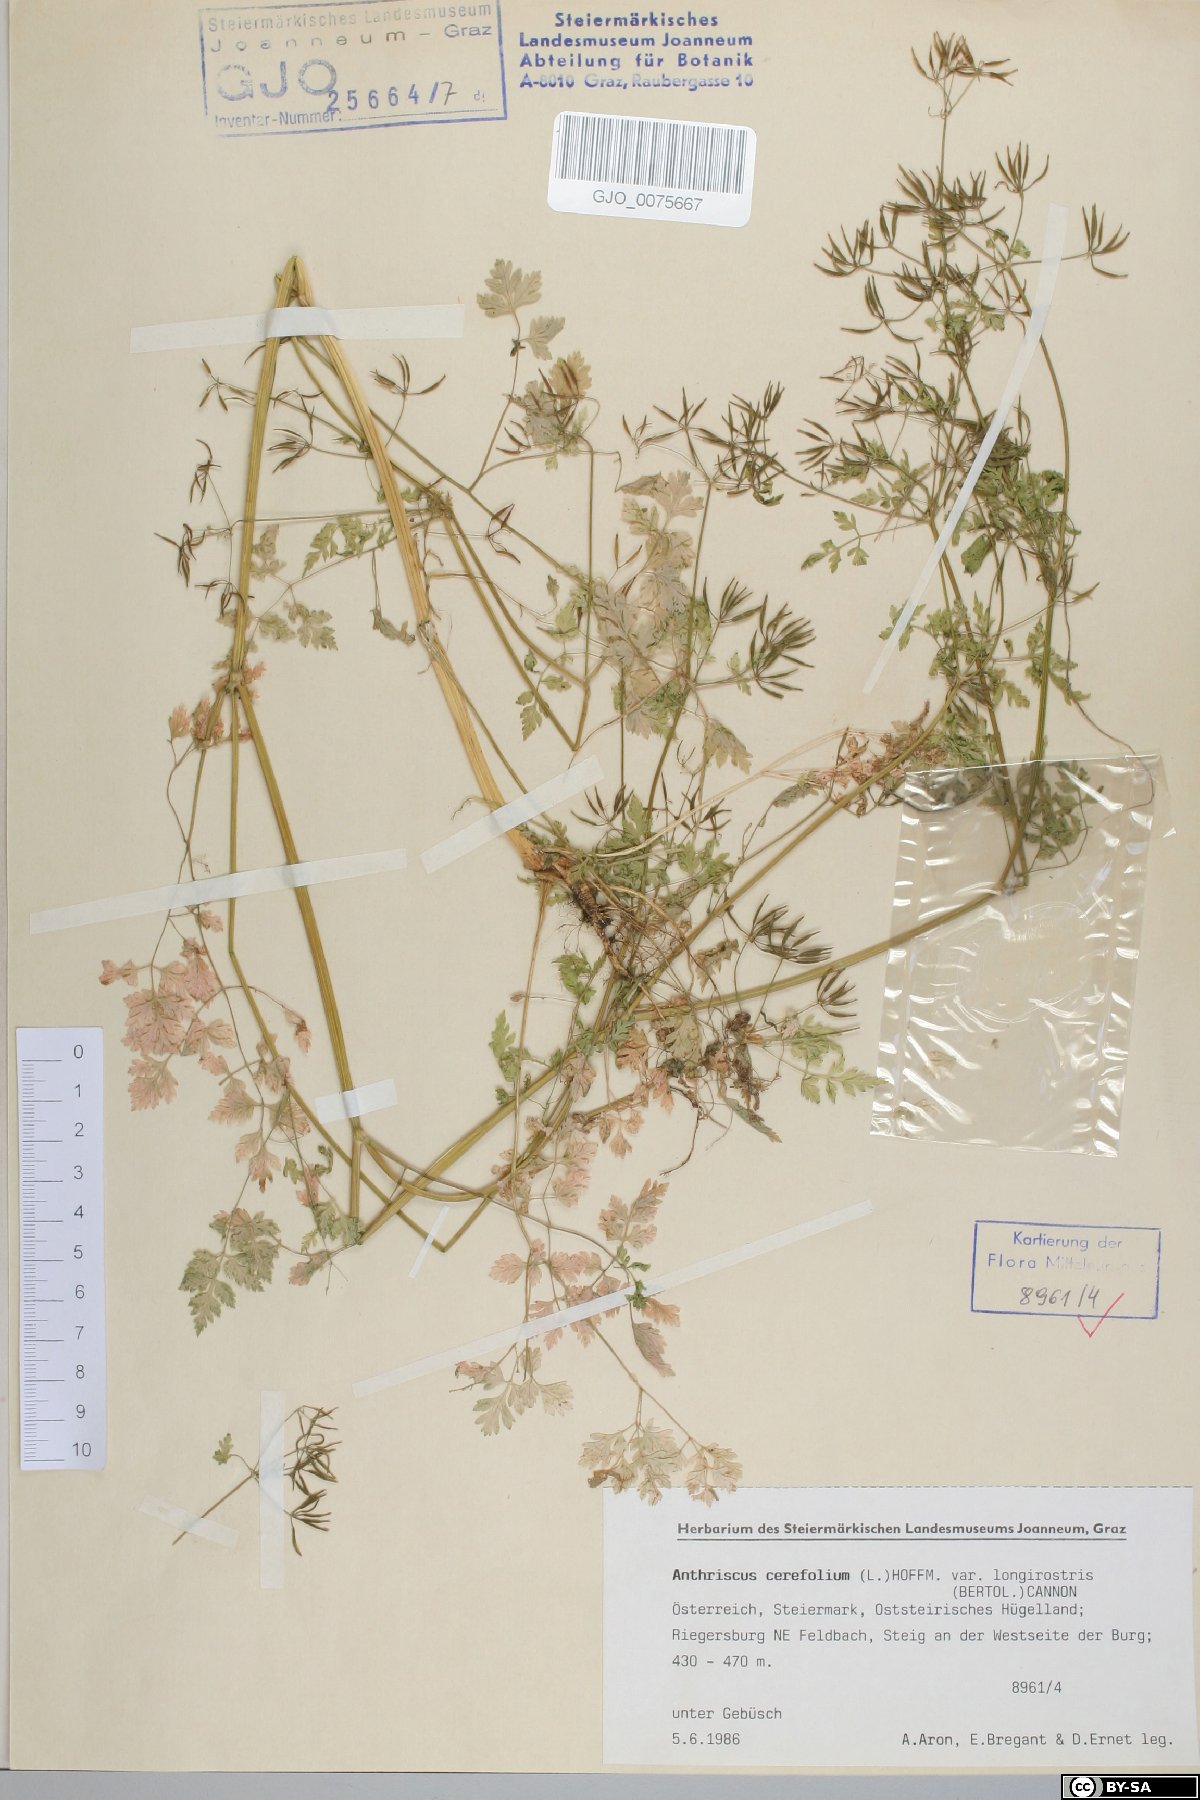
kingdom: Plantae
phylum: Tracheophyta
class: Magnoliopsida
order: Apiales
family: Apiaceae
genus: Anthriscus
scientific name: Anthriscus cerefolium
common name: Garden chervil
